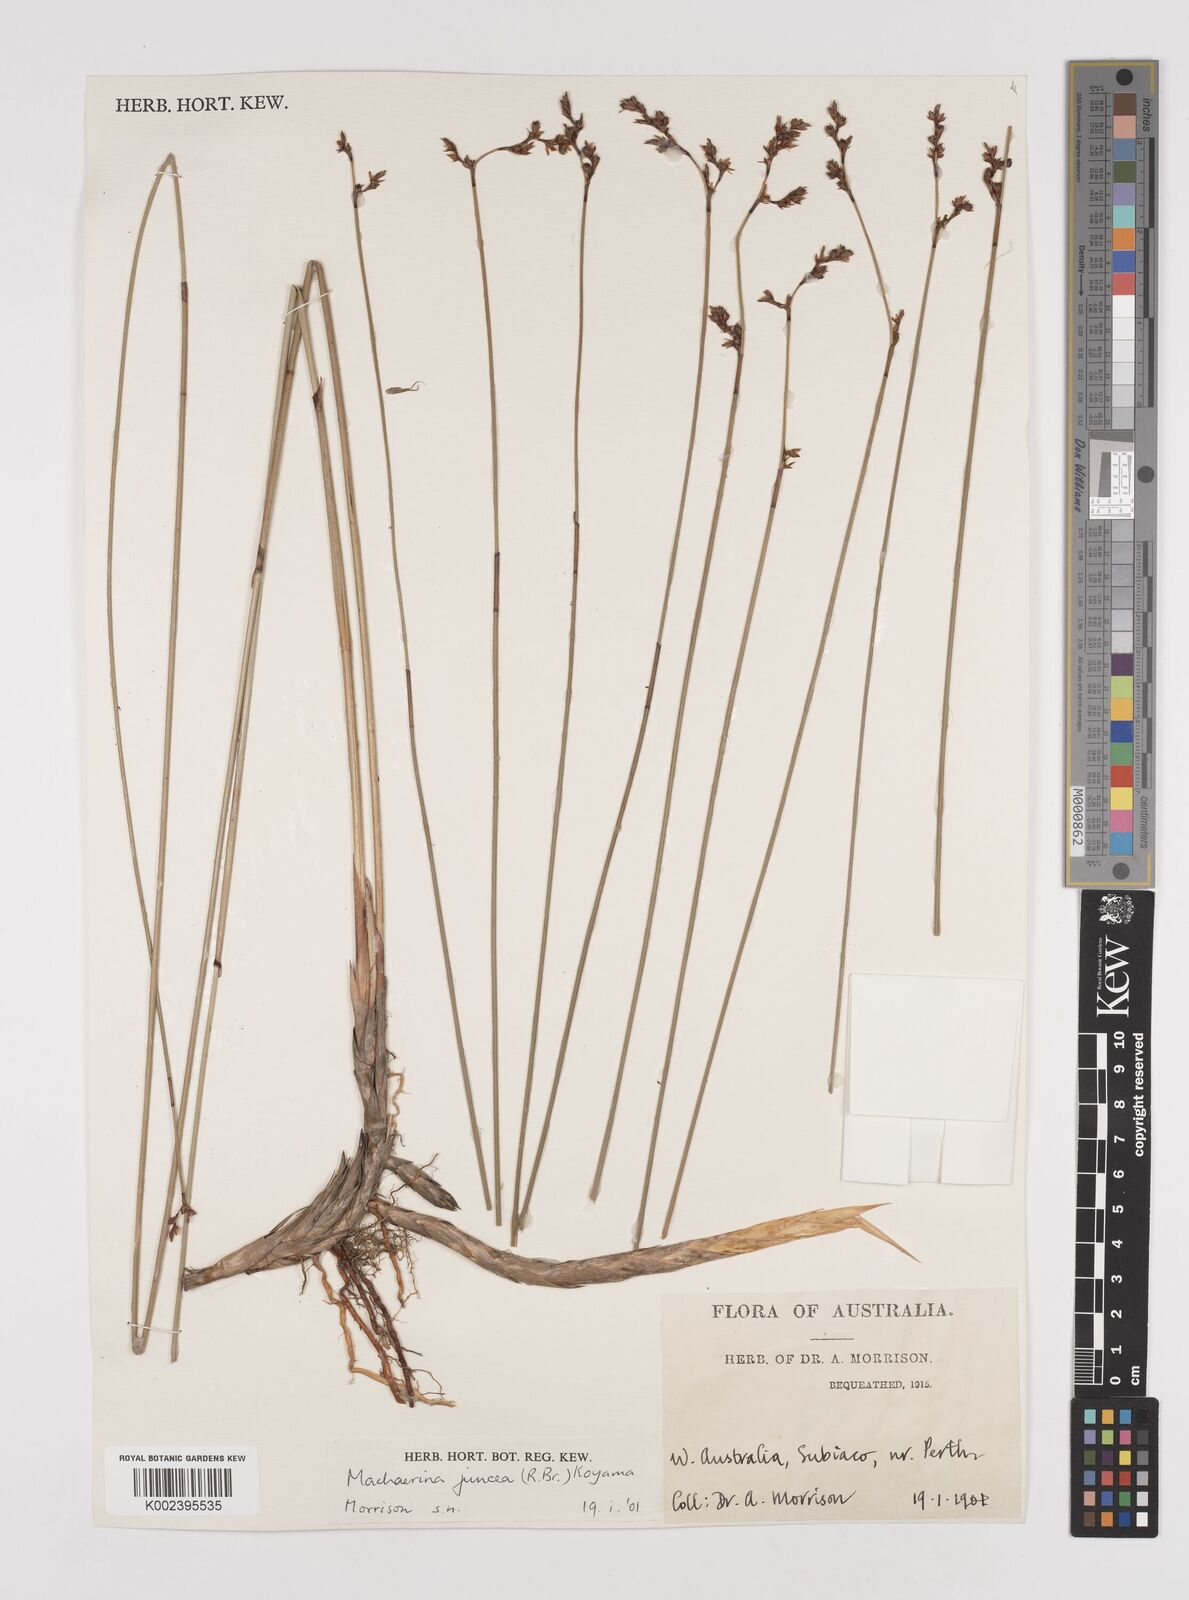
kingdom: Plantae
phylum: Tracheophyta
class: Liliopsida
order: Poales
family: Cyperaceae
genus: Machaerina
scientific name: Machaerina juncea
